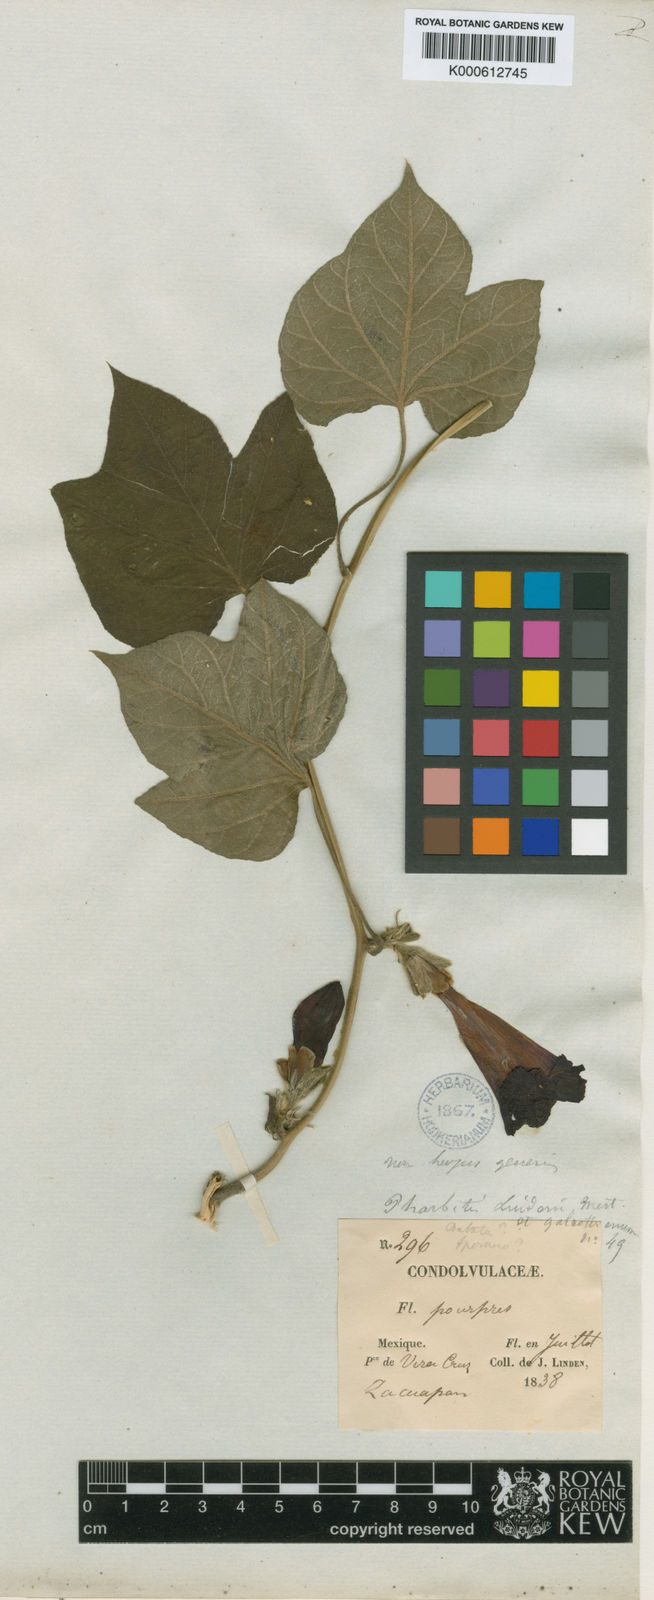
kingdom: Plantae
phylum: Tracheophyta
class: Magnoliopsida
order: Solanales
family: Convolvulaceae
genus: Ipomoea
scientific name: Ipomoea lindenii
